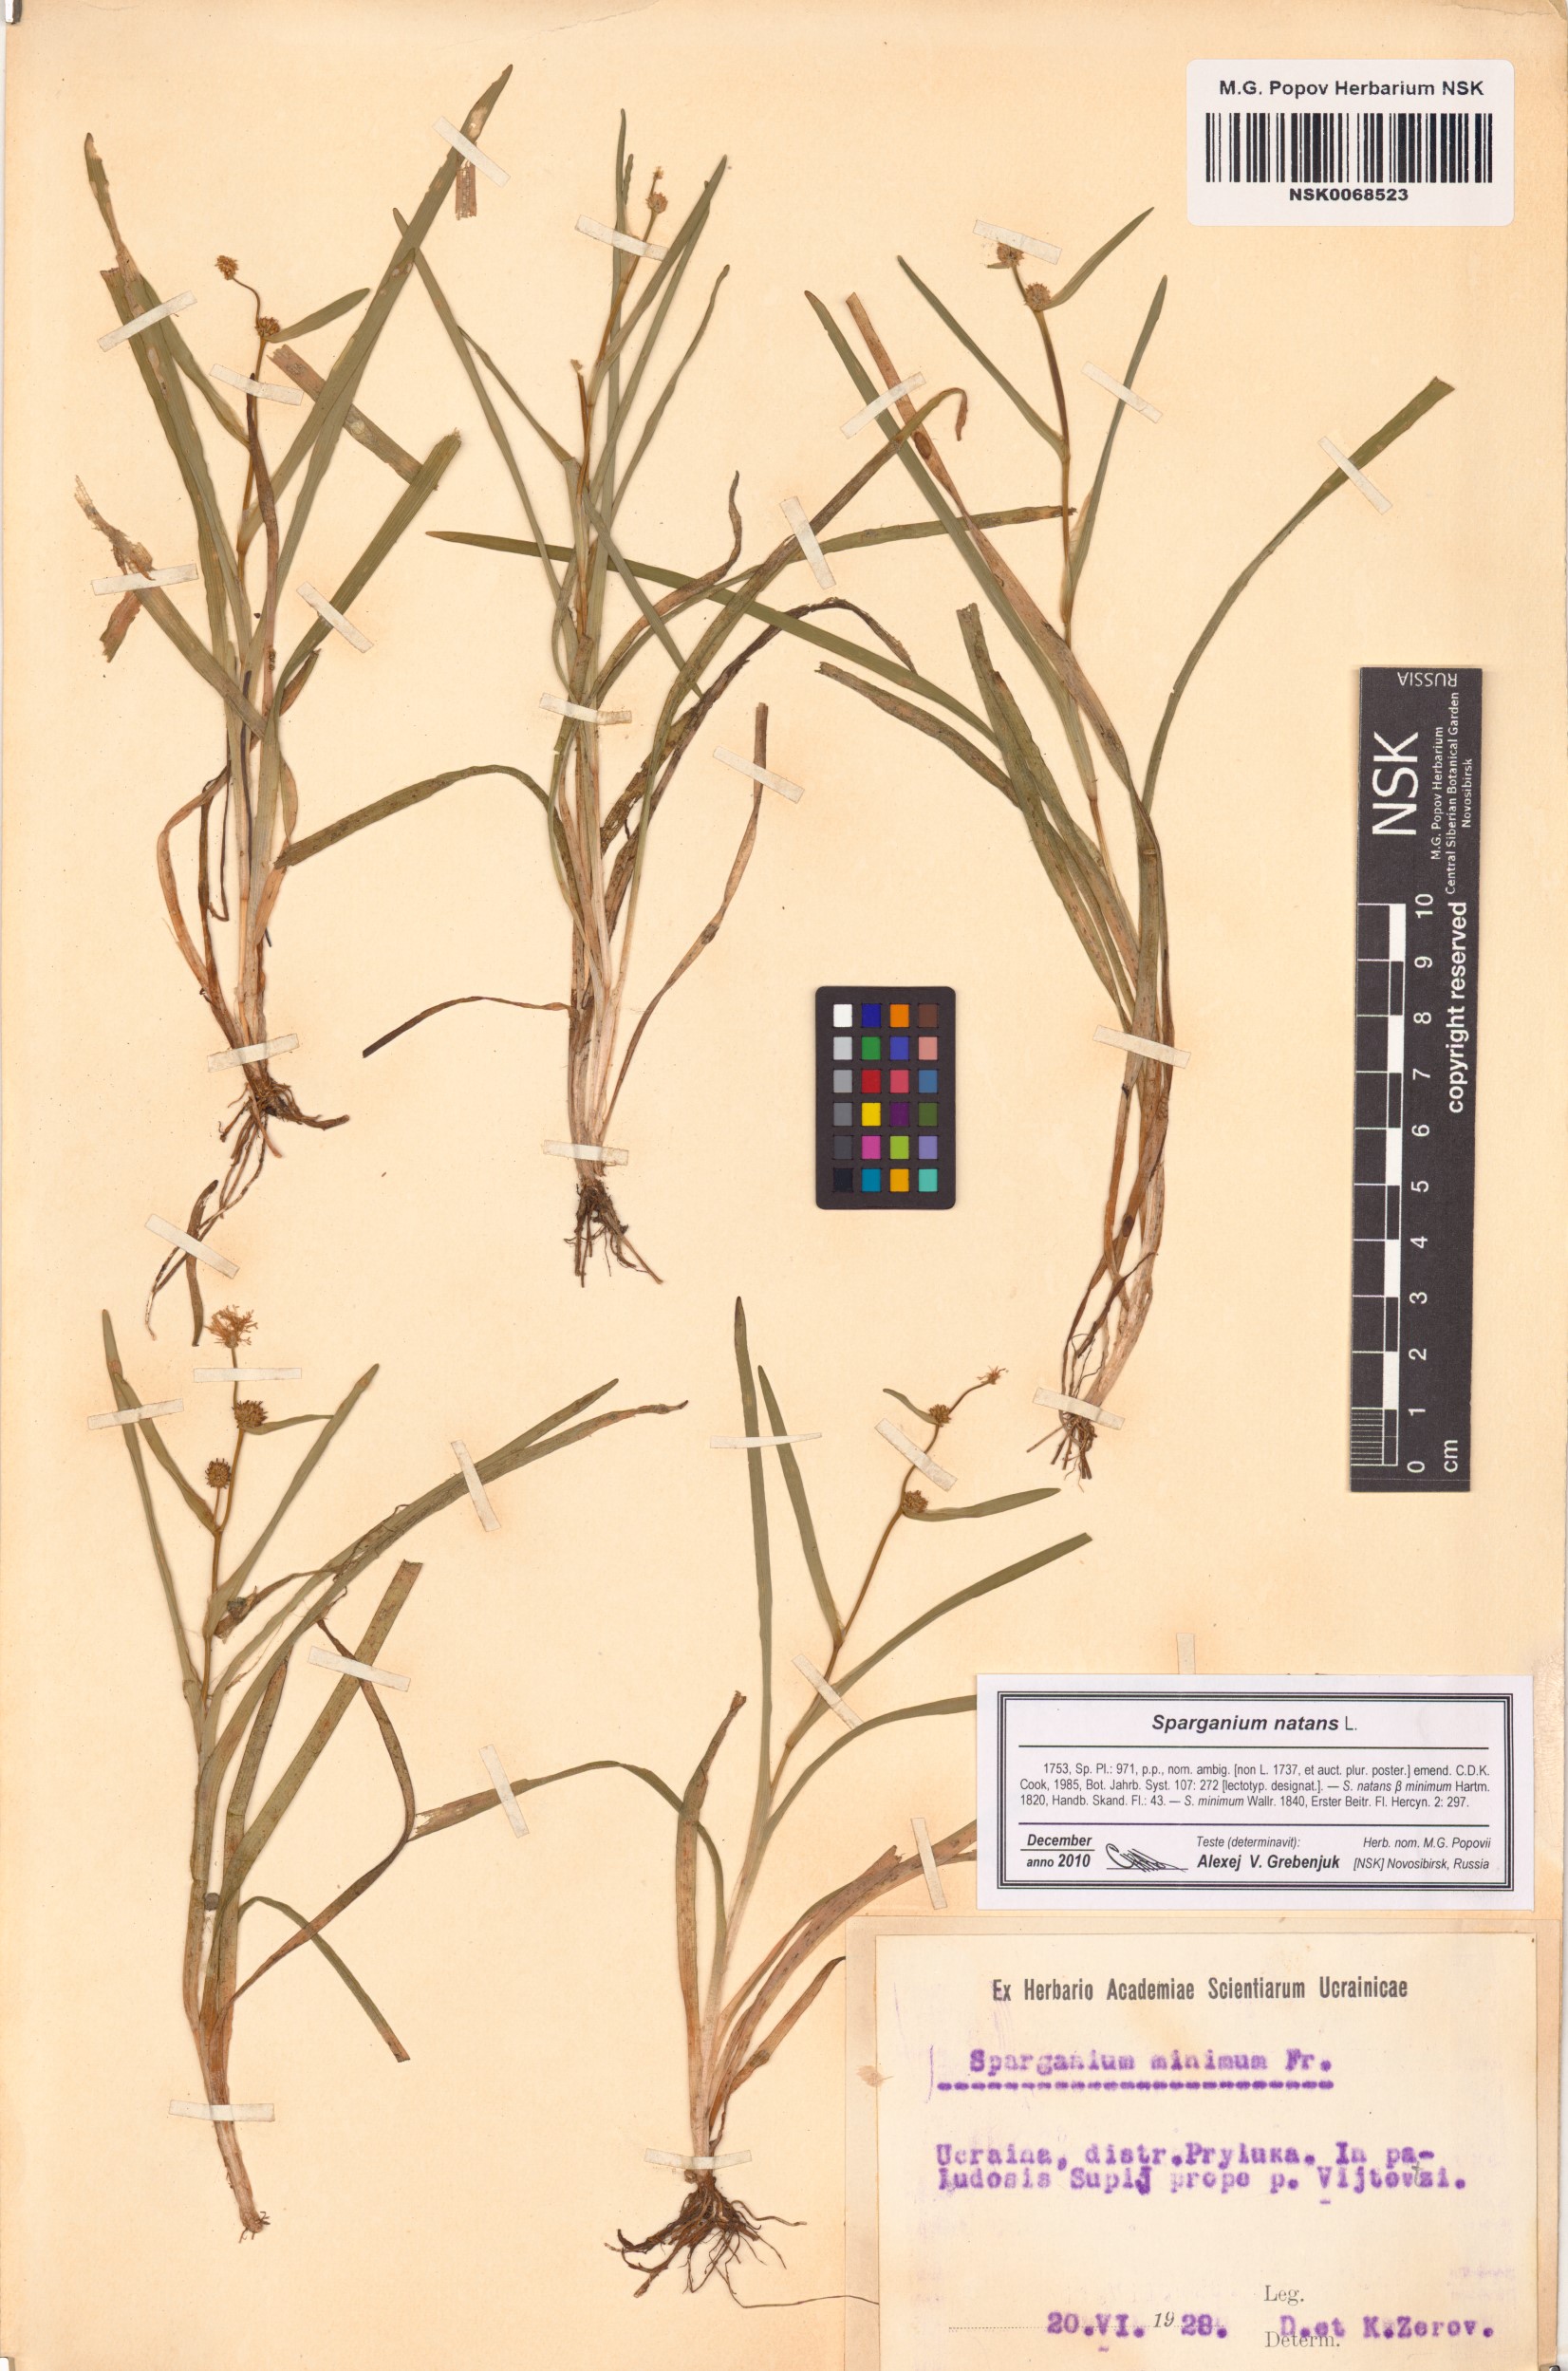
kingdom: Plantae
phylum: Tracheophyta
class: Liliopsida
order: Poales
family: Typhaceae
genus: Sparganium
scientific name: Sparganium natans
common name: Least bur-reed
